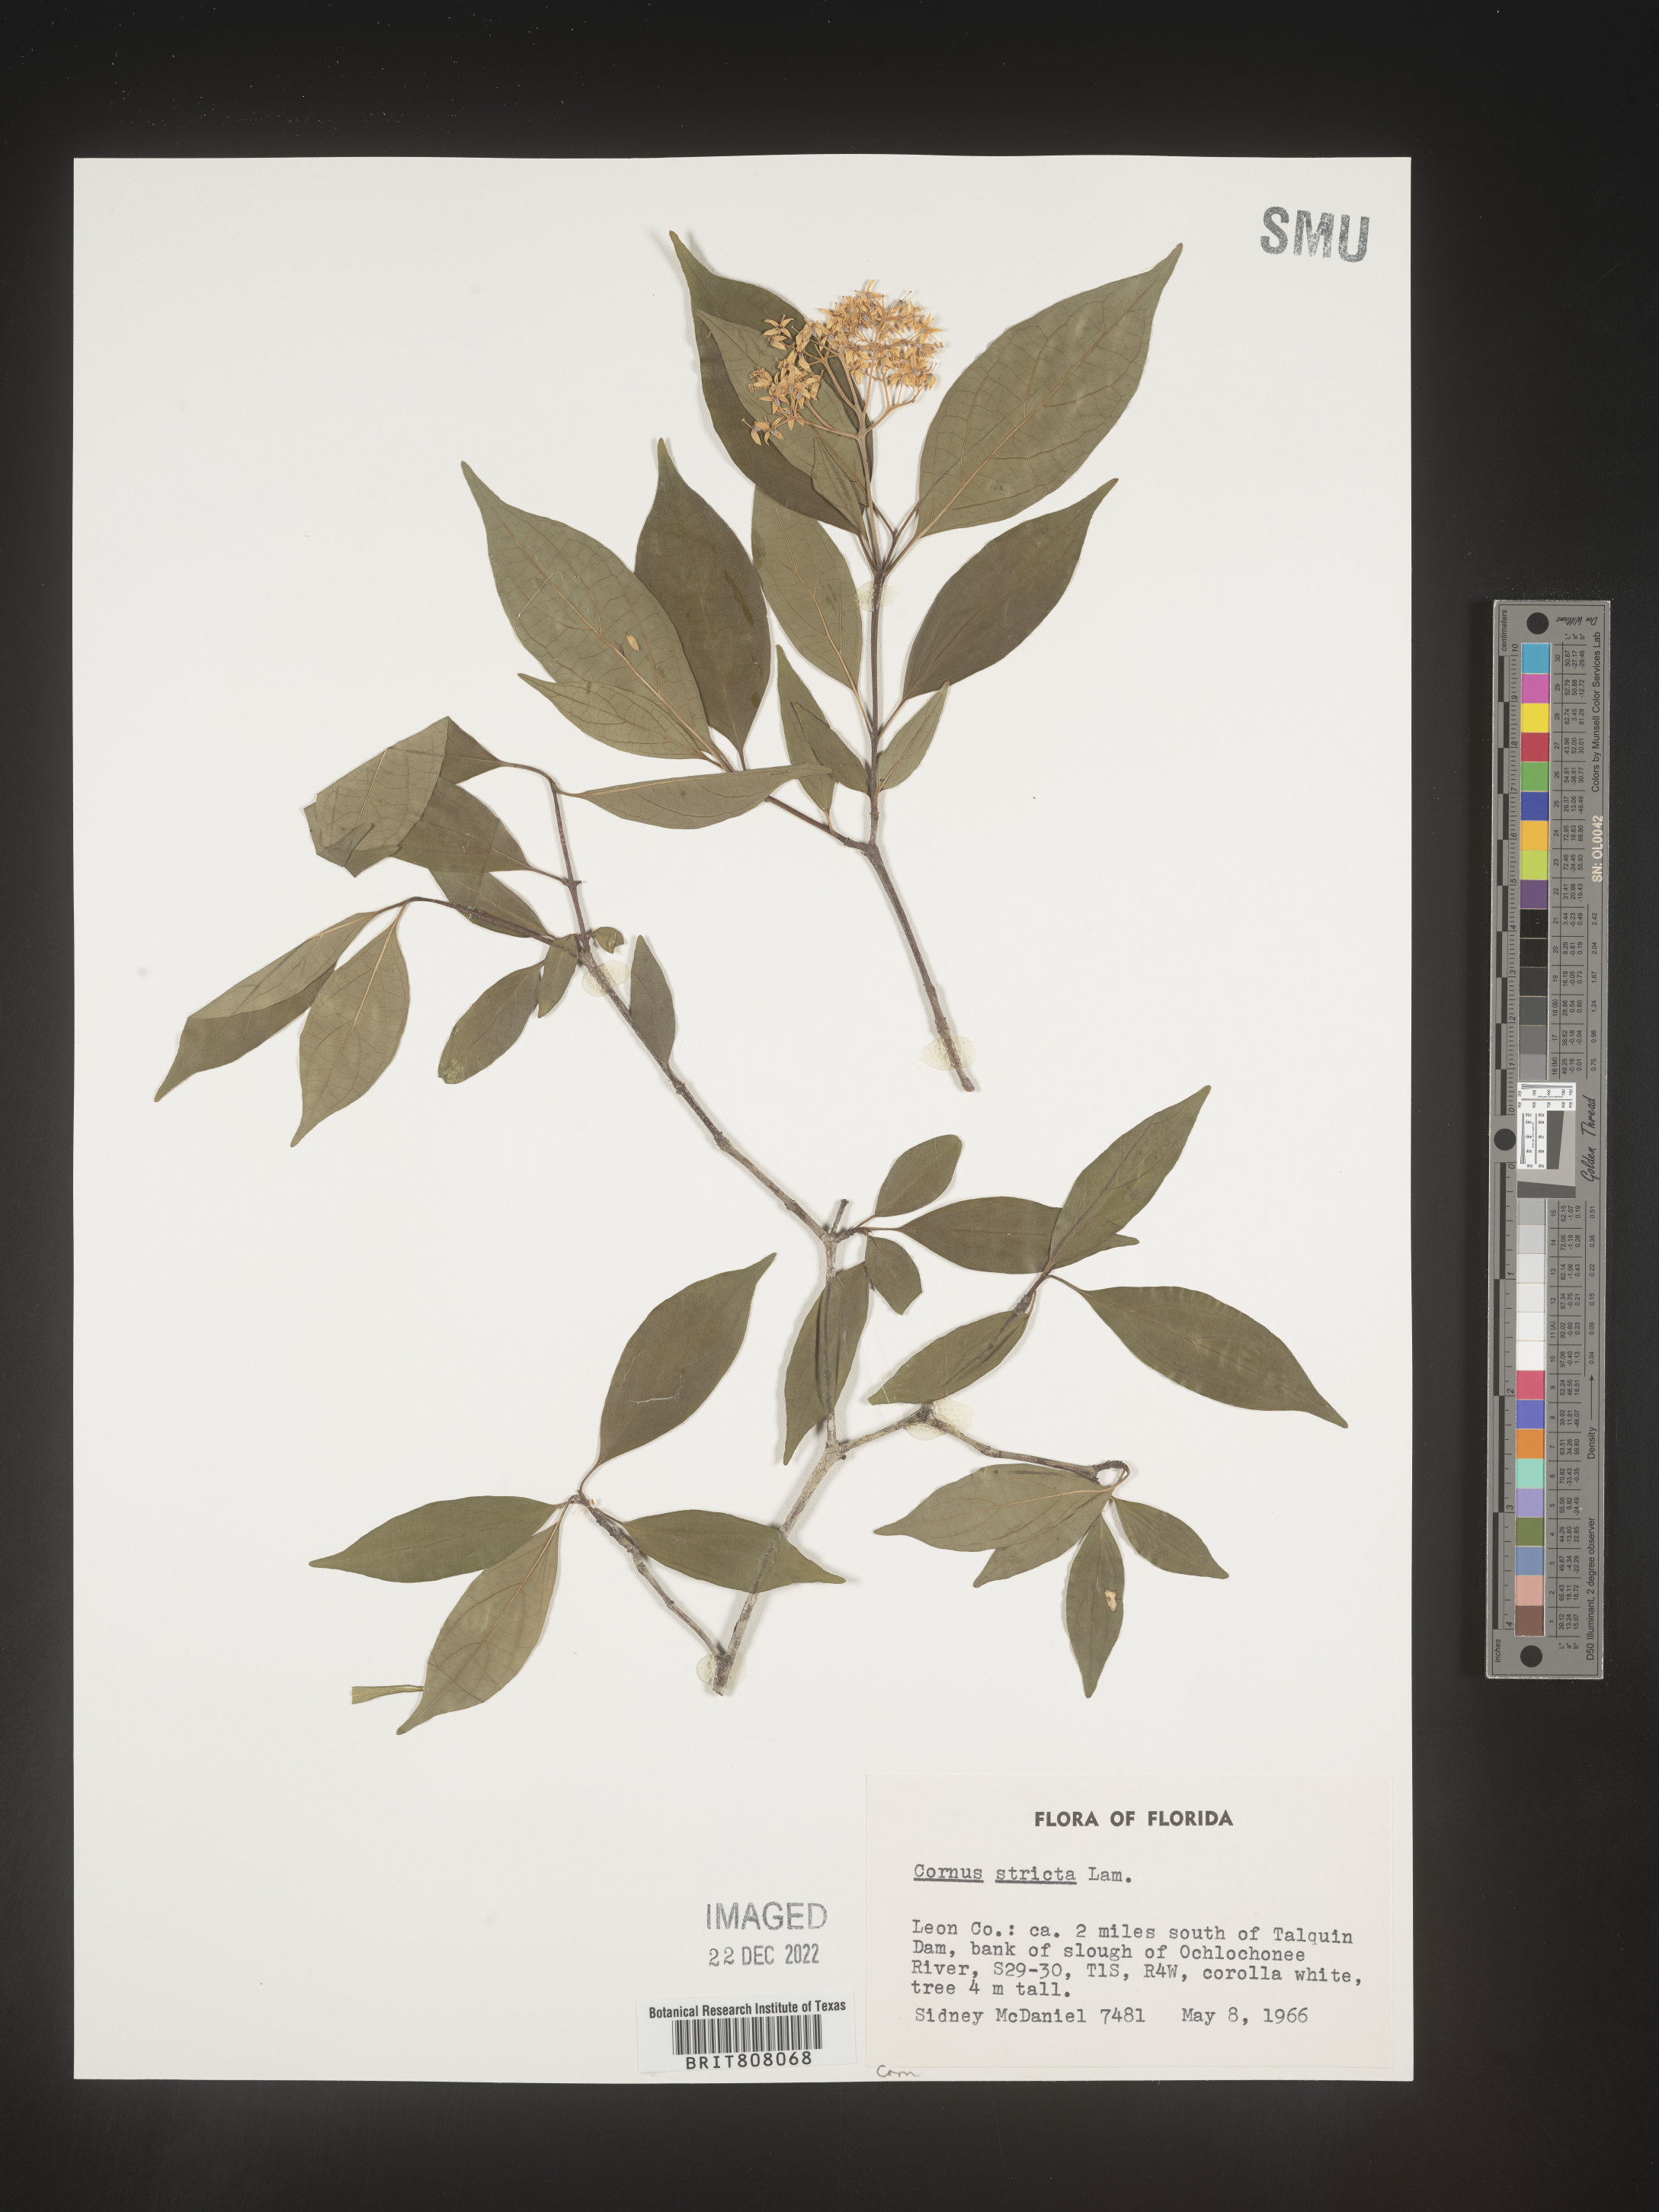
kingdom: Plantae
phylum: Tracheophyta
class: Magnoliopsida
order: Cornales
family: Cornaceae
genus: Cornus
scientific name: Cornus foemina
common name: Swamp dogwood
